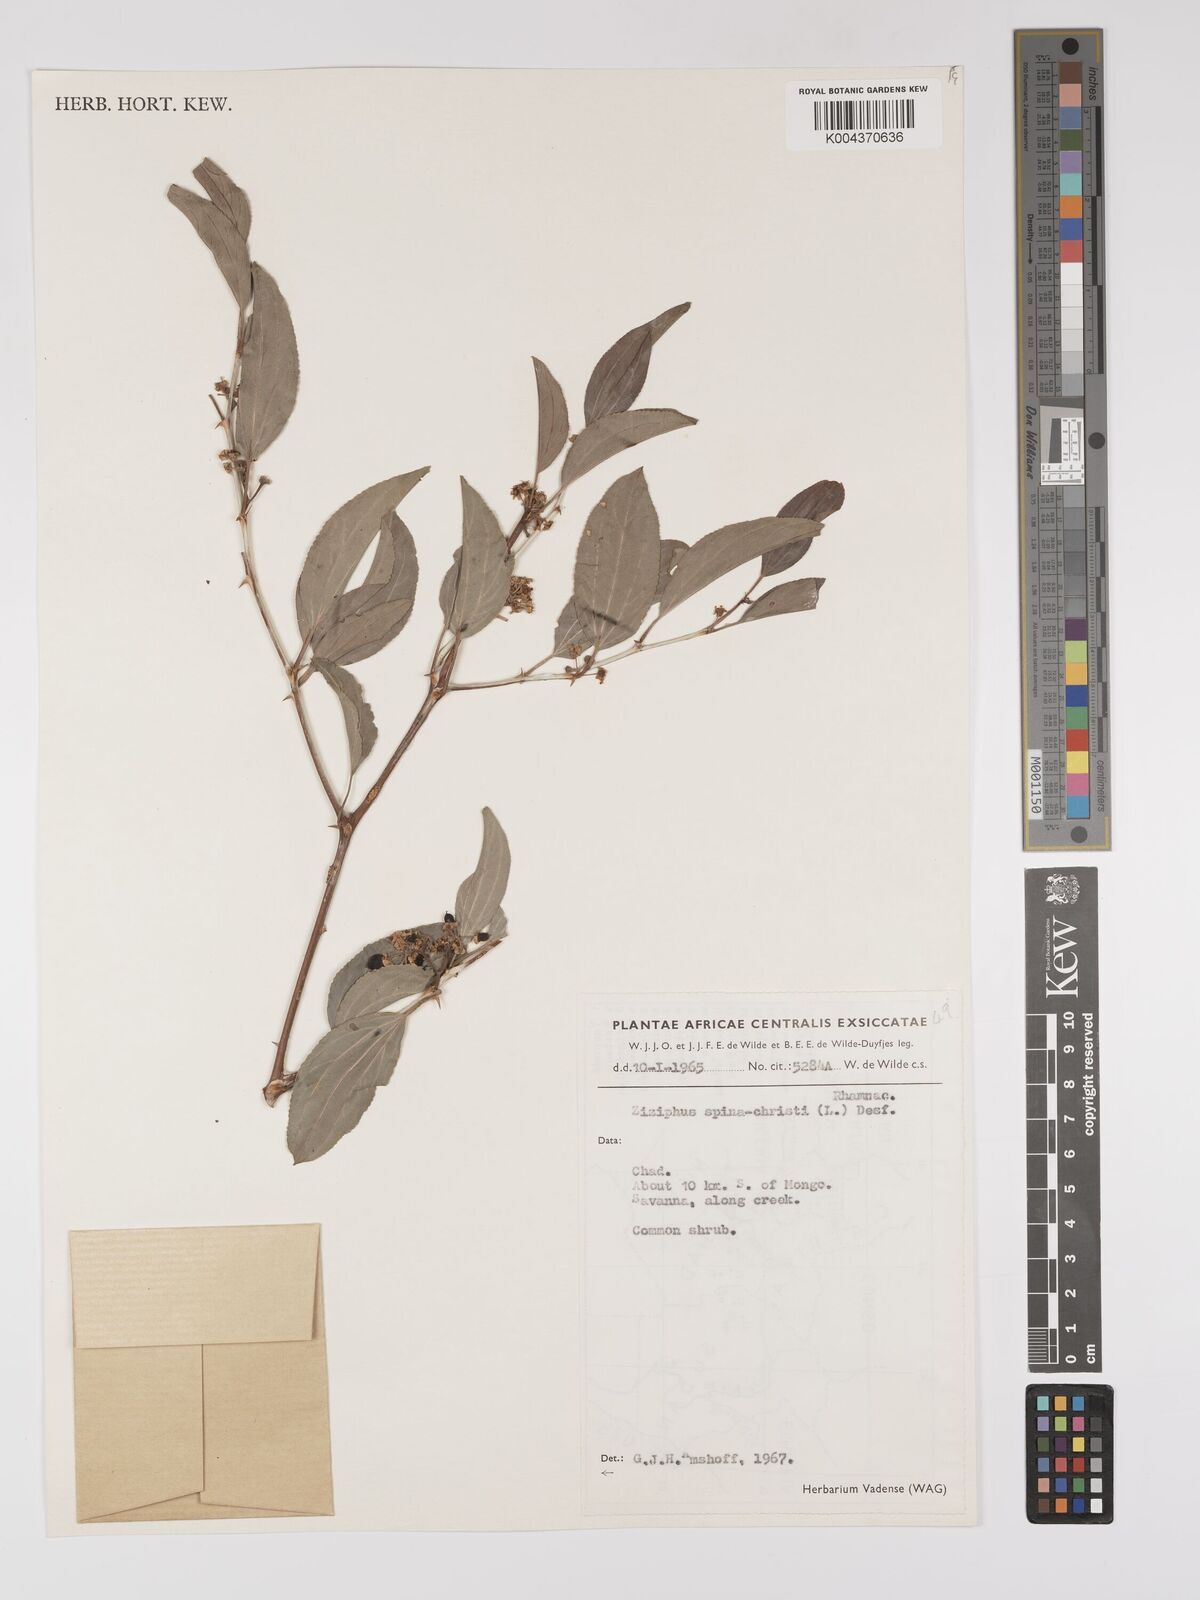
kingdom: Plantae
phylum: Tracheophyta
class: Magnoliopsida
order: Rosales
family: Rhamnaceae
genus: Ziziphus
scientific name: Ziziphus spina-christi
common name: Syrian christ-thorn
